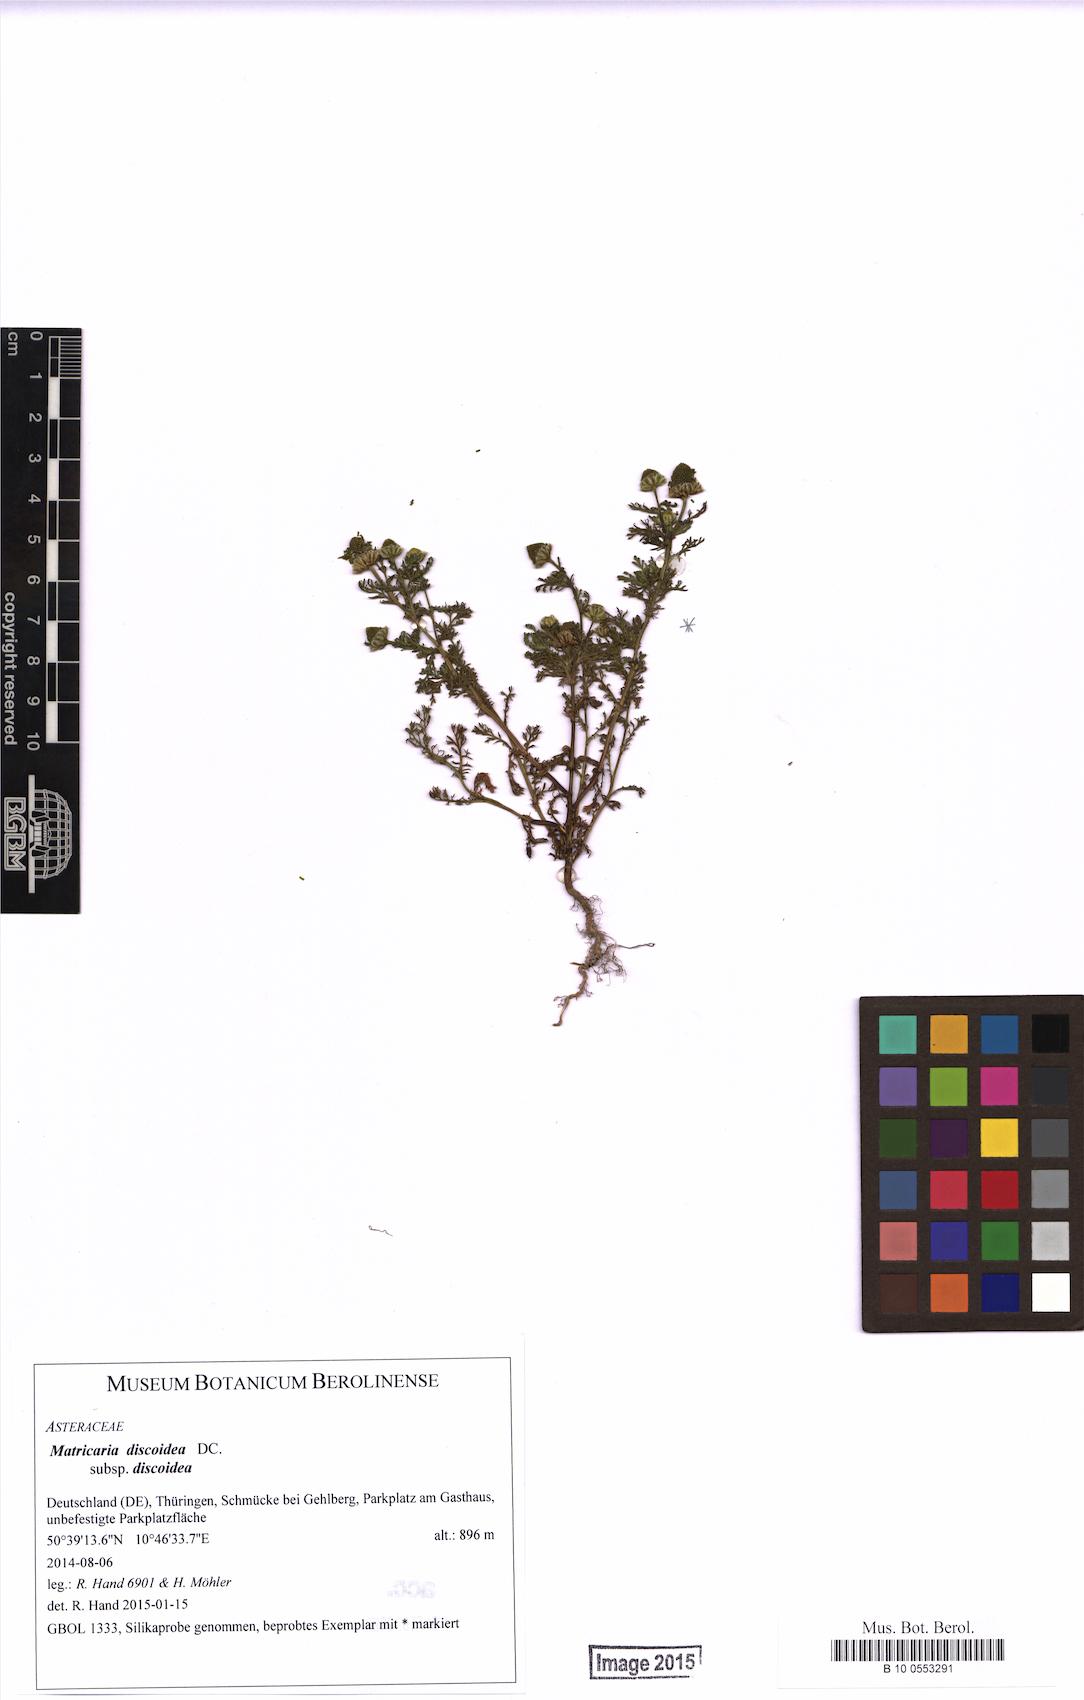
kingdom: Plantae
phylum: Tracheophyta
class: Magnoliopsida
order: Asterales
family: Asteraceae
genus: Matricaria
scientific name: Matricaria discoidea
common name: Disc mayweed
